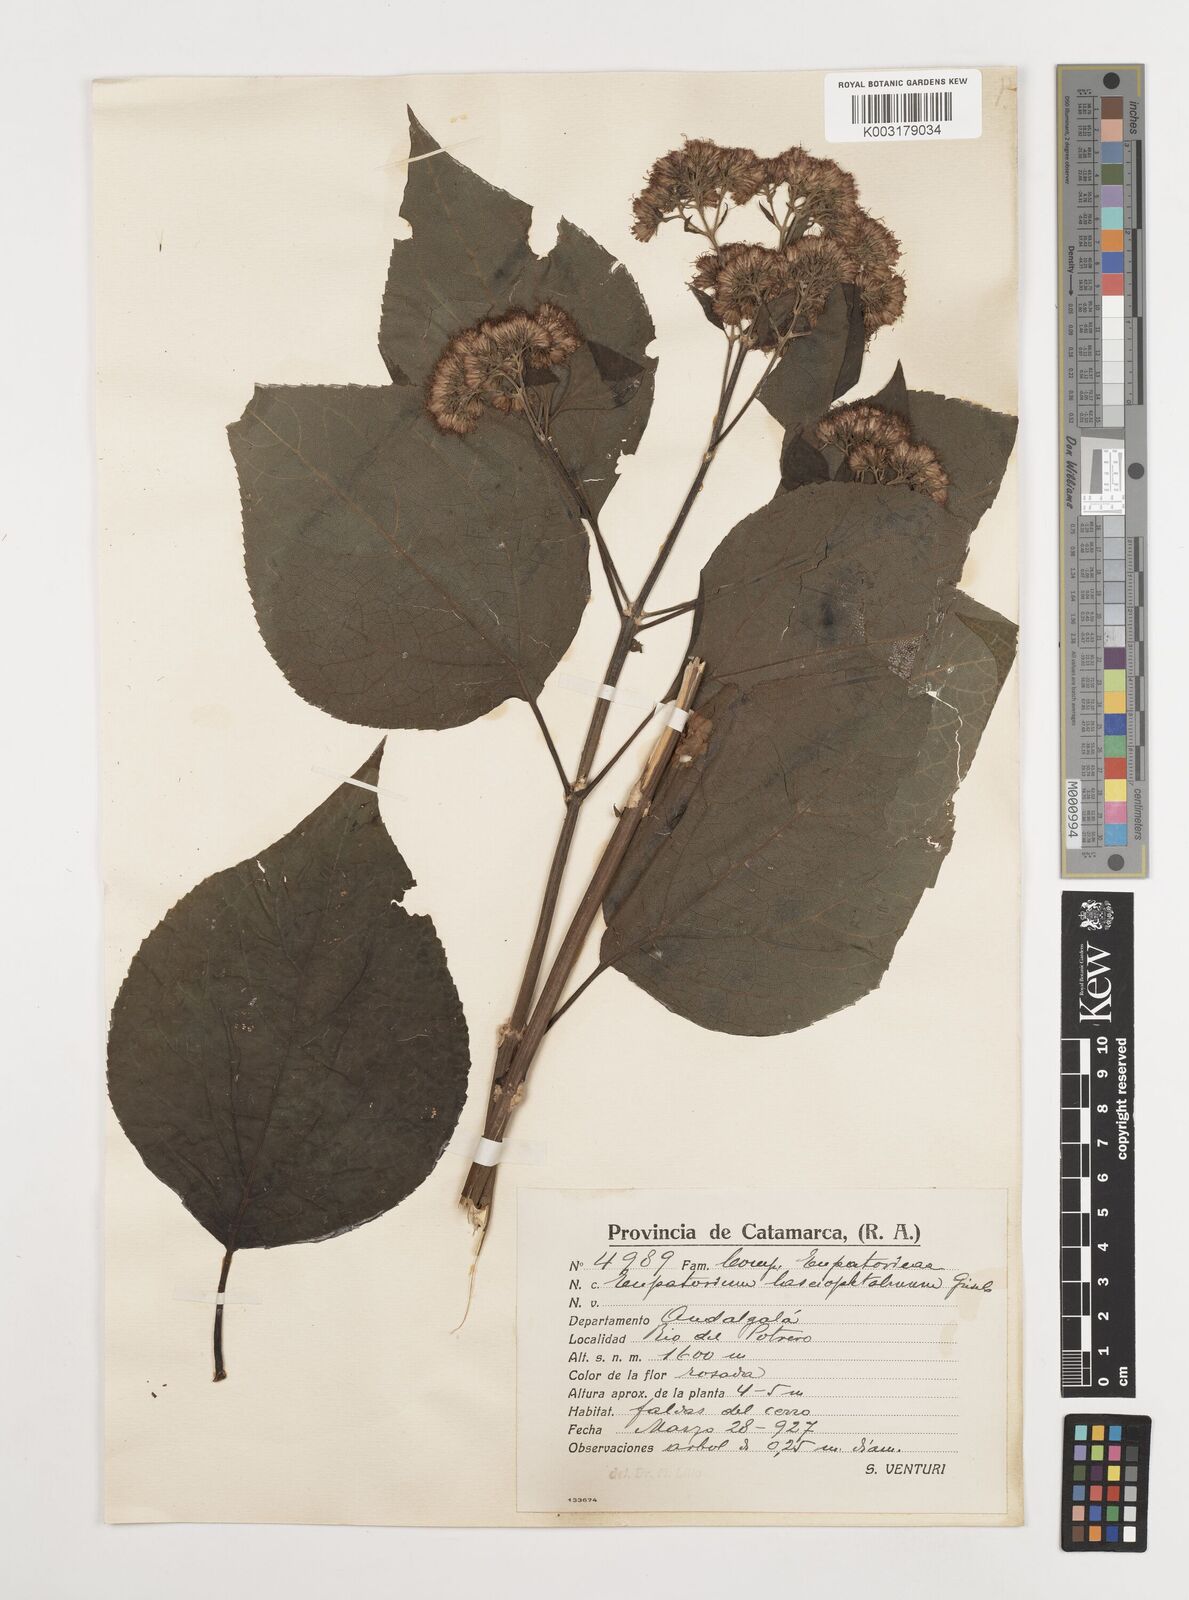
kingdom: Plantae
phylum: Tracheophyta
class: Magnoliopsida
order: Asterales
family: Asteraceae
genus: Kaunia
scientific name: Kaunia lasiophthalma
